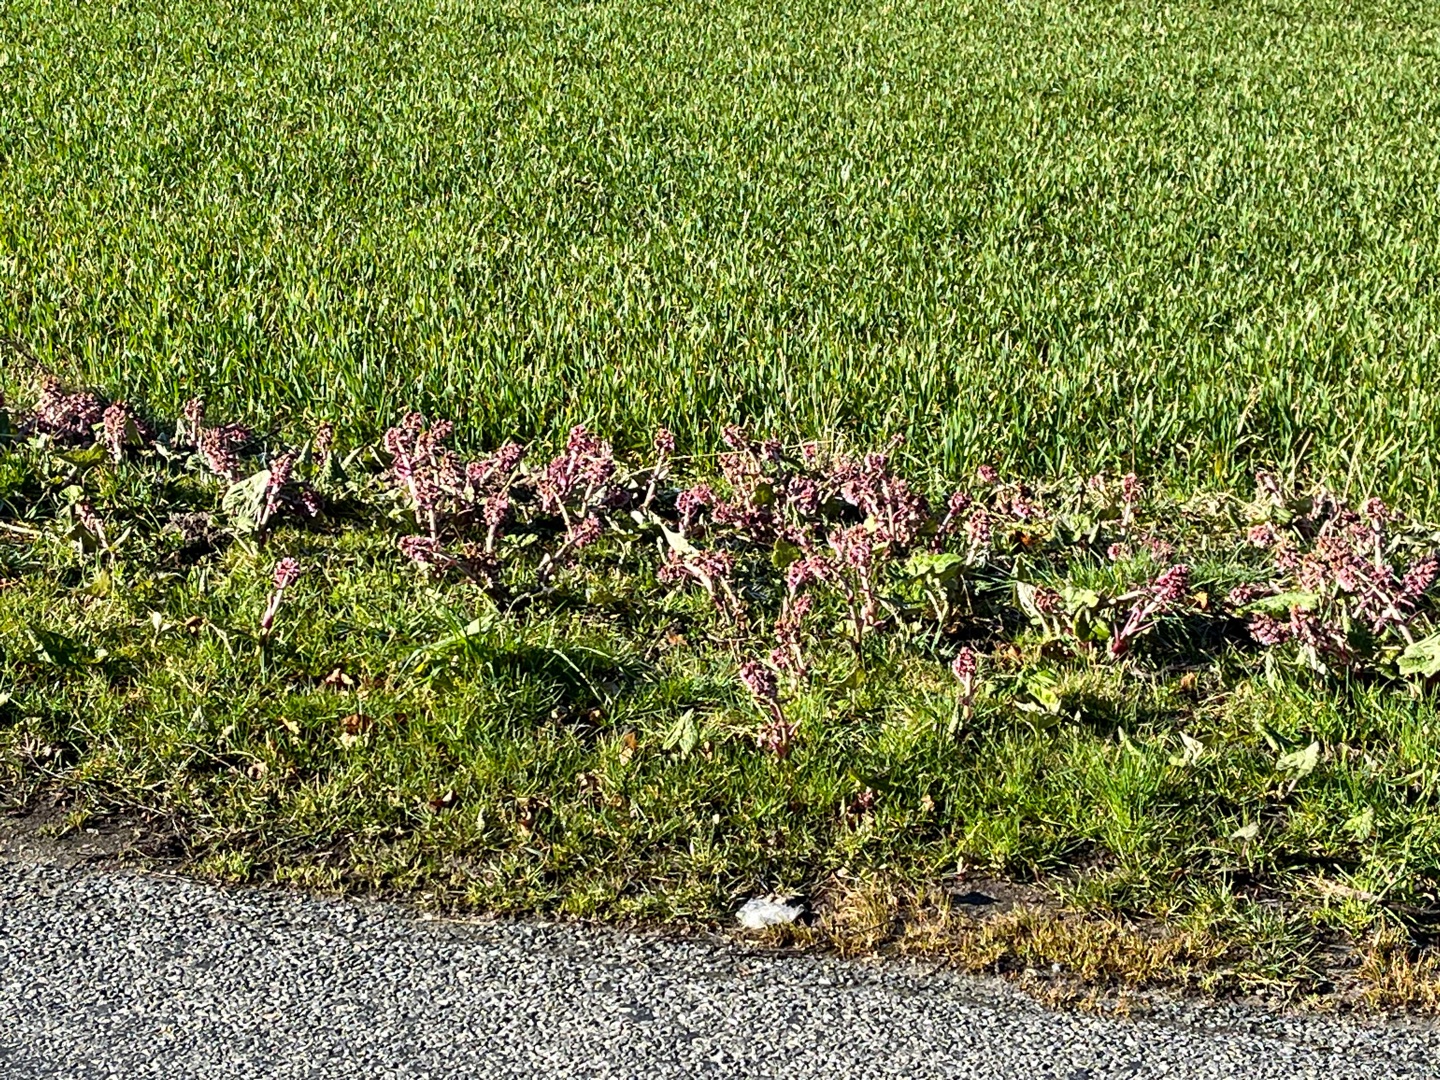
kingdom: Plantae
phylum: Tracheophyta
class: Magnoliopsida
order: Asterales
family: Asteraceae
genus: Petasites
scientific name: Petasites hybridus
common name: Rød hestehov
